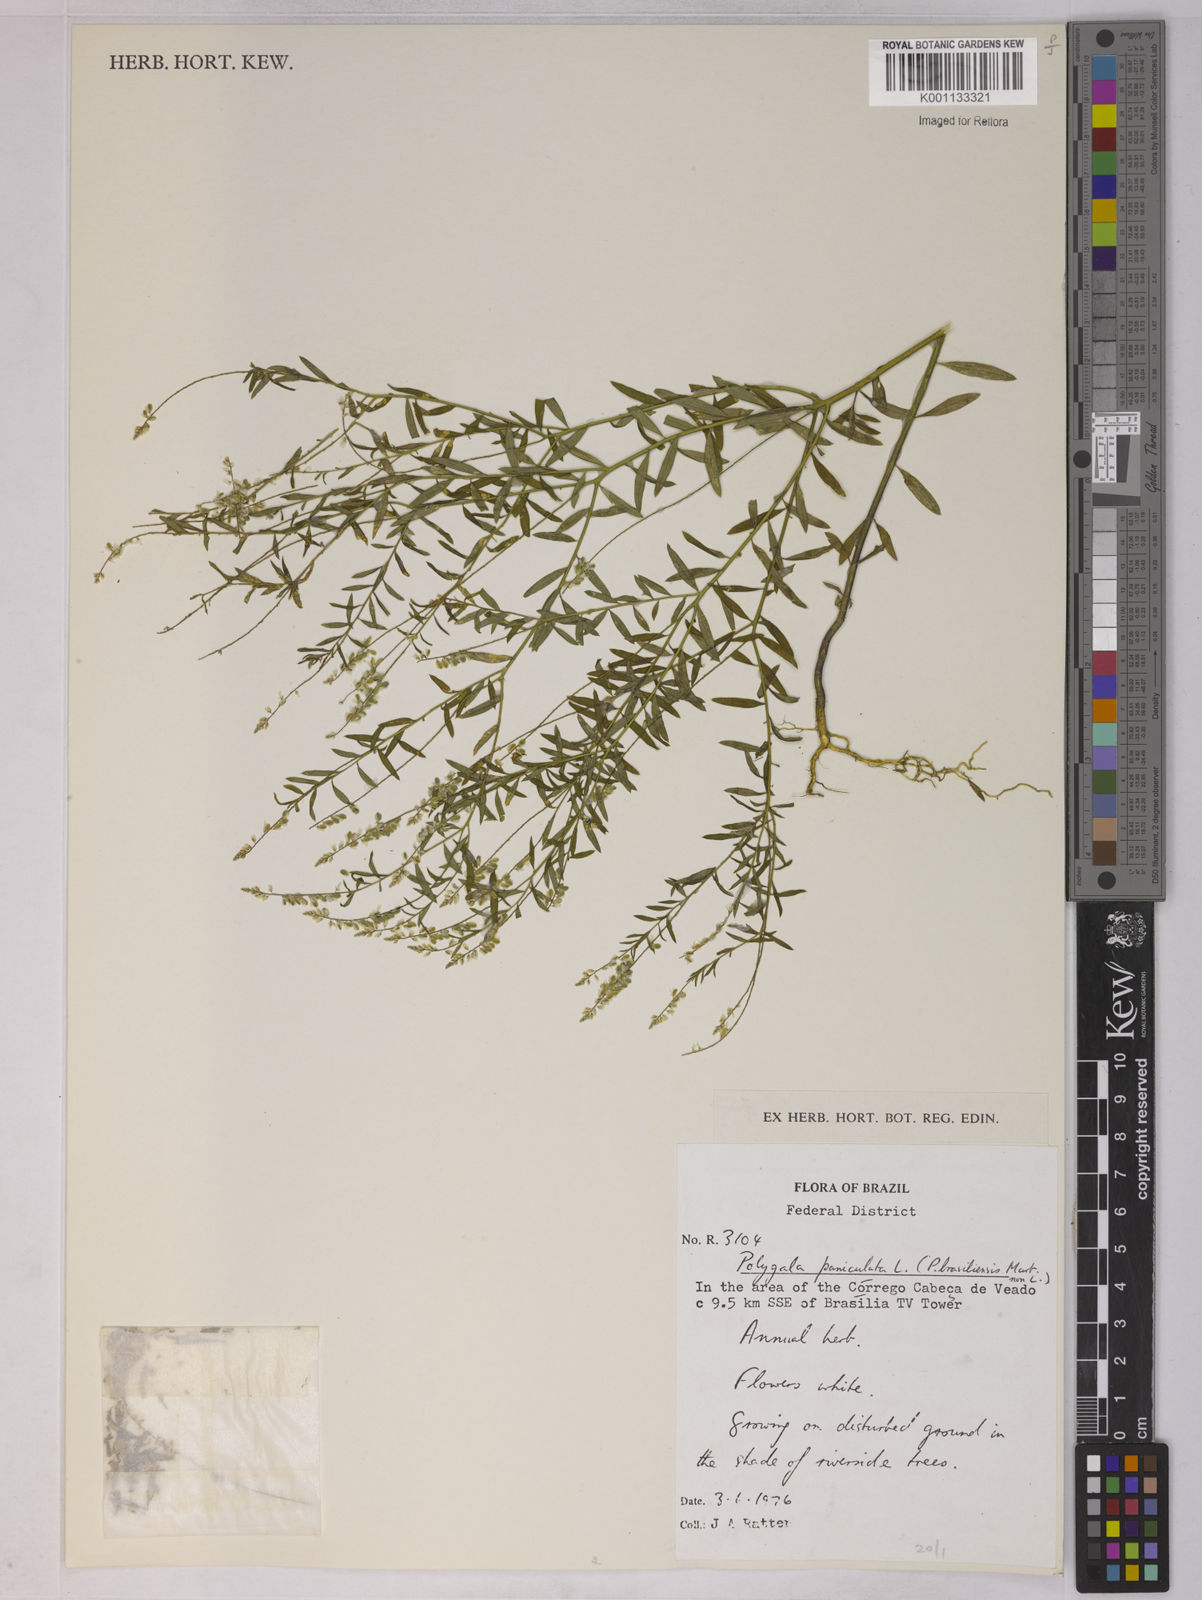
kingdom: Plantae
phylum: Tracheophyta
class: Magnoliopsida
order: Fabales
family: Polygalaceae
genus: Polygala
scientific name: Polygala paniculata
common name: Orosne
